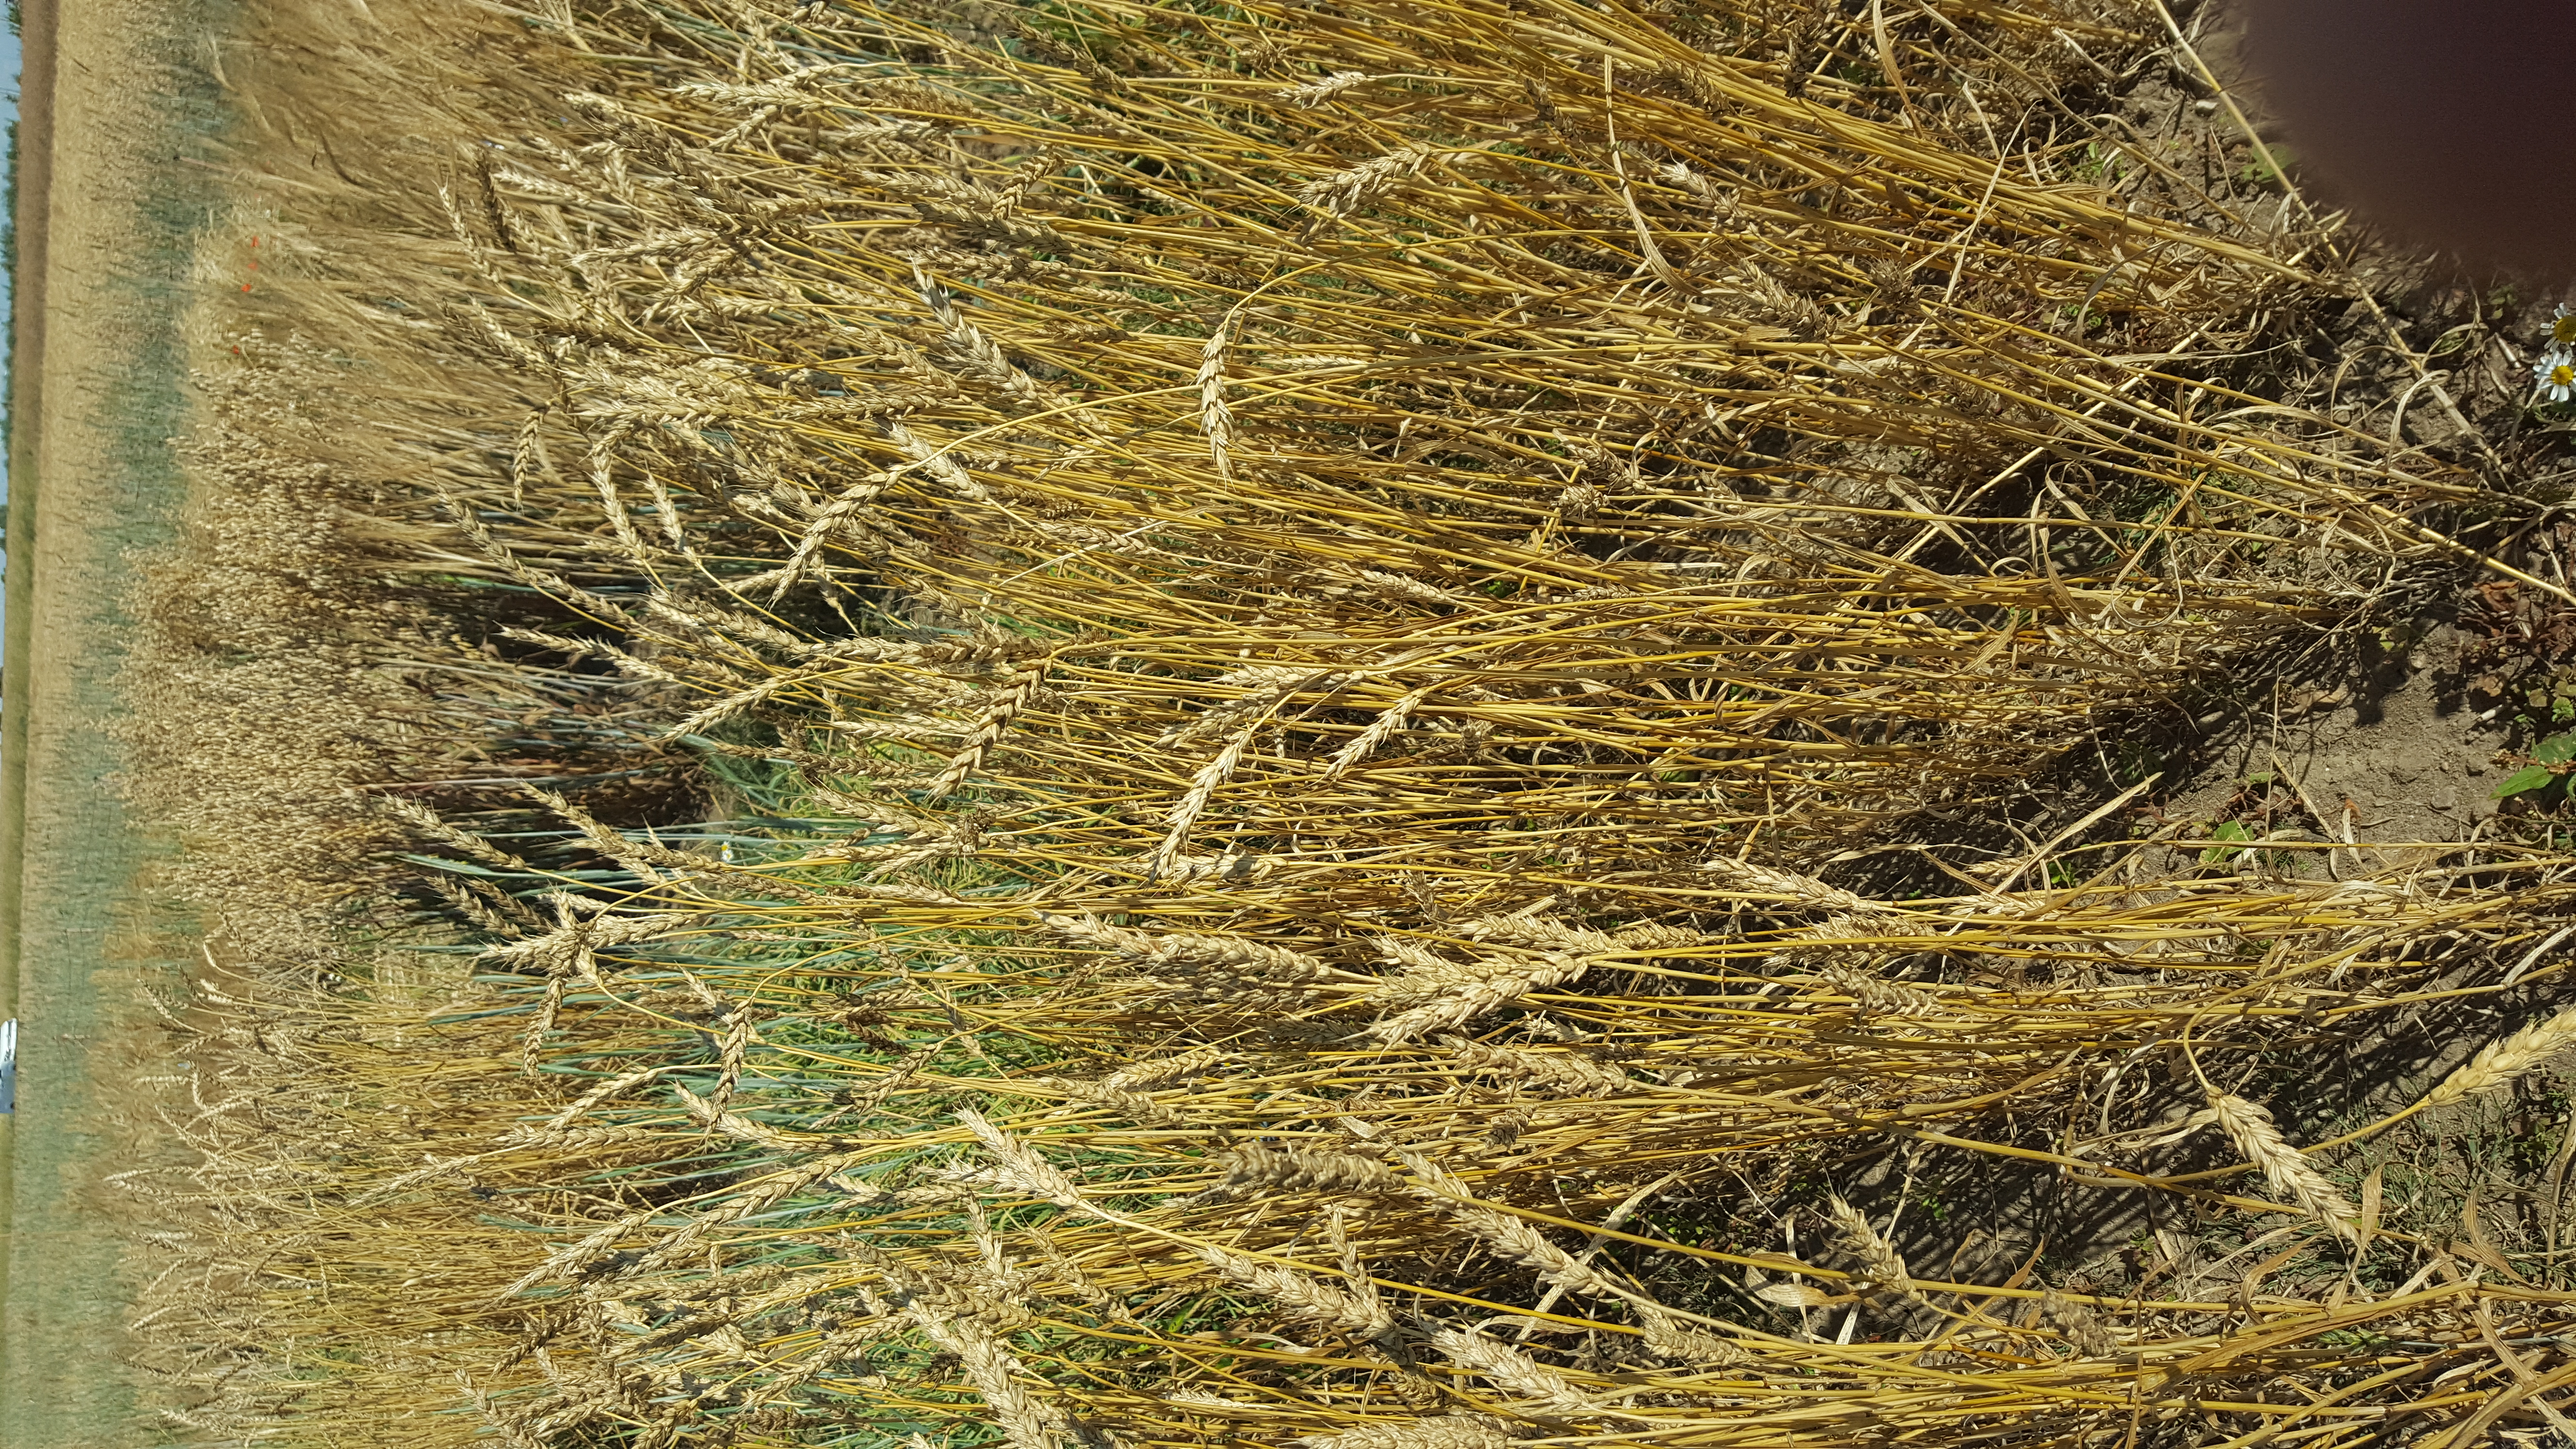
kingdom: Plantae
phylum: Tracheophyta
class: Liliopsida
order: Poales
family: Poaceae
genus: Triticum
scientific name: Triticum aestivum
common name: Common wheat
